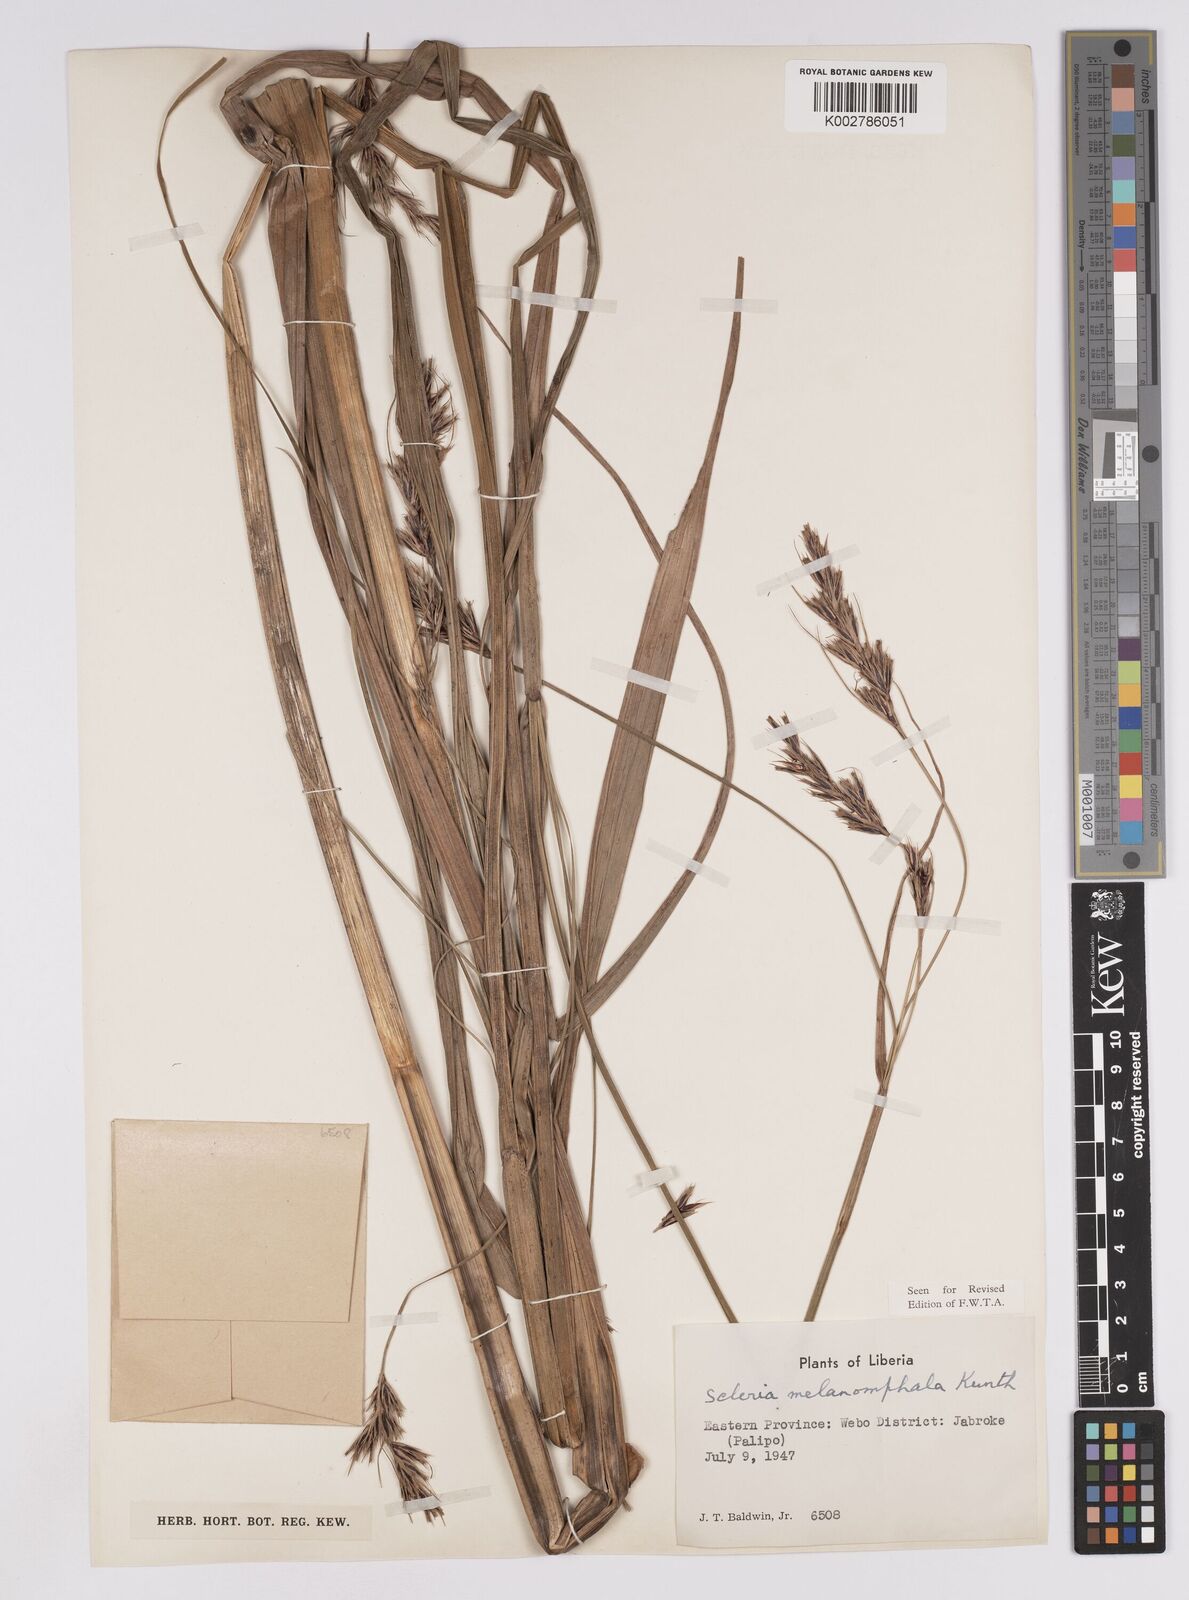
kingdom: Plantae
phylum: Tracheophyta
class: Liliopsida
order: Poales
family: Cyperaceae
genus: Scleria
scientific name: Scleria melanomphala
